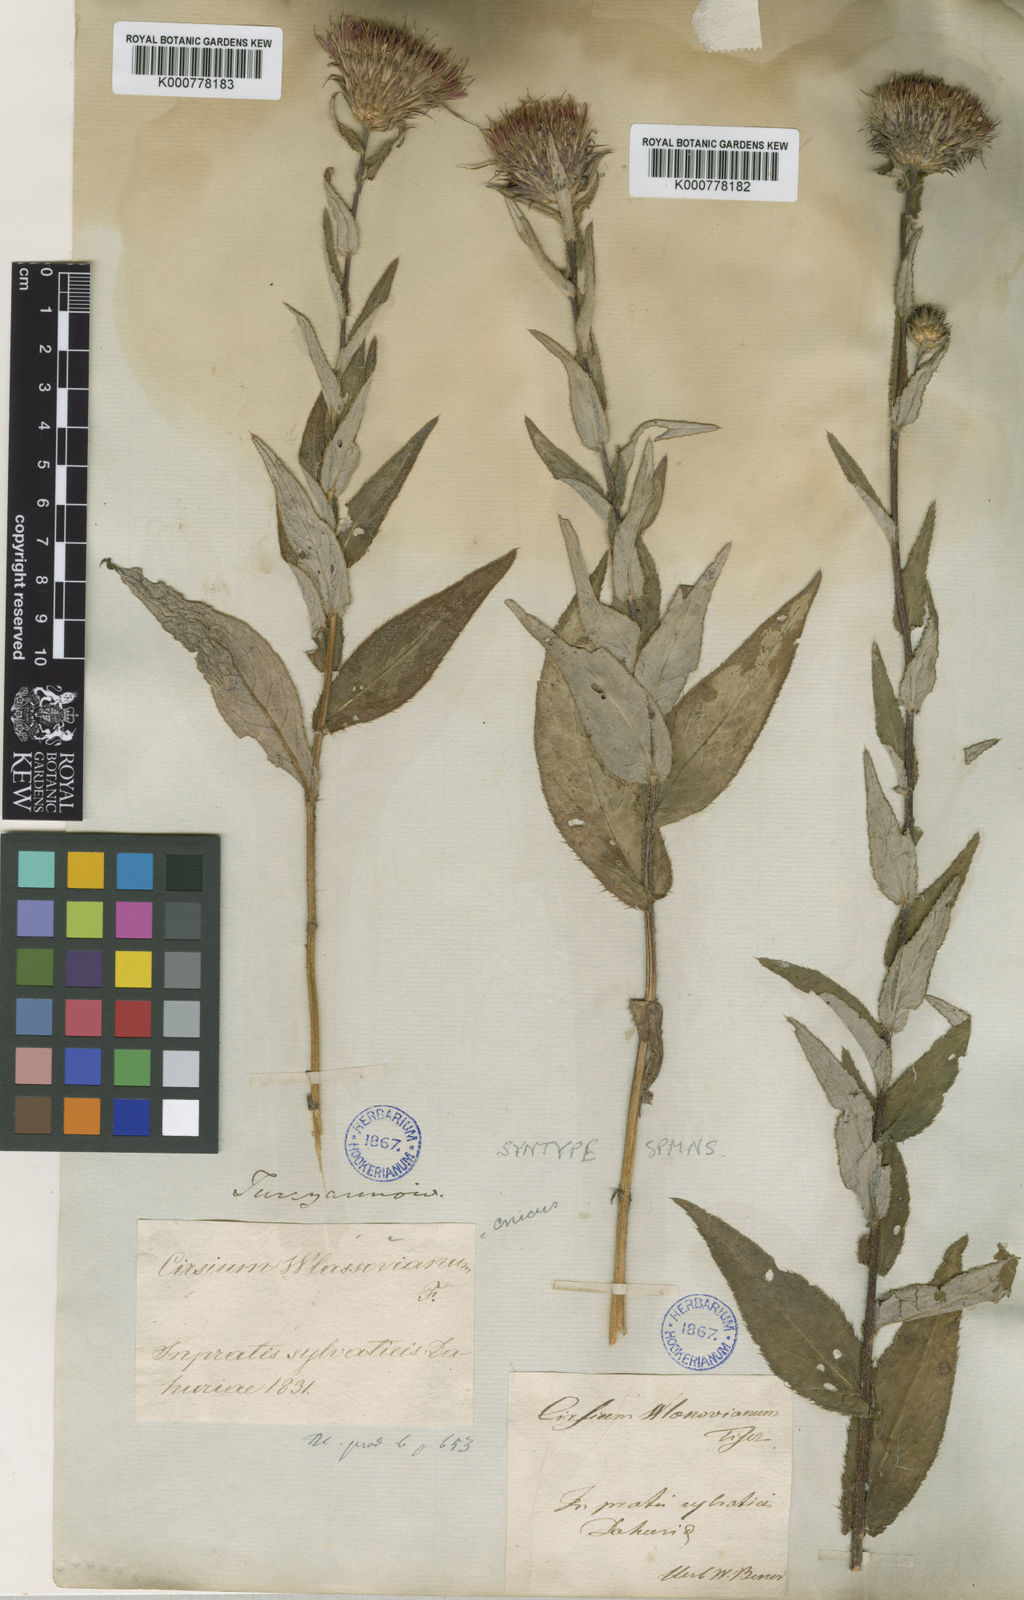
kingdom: Plantae
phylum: Tracheophyta
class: Magnoliopsida
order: Asterales
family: Asteraceae
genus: Cirsium
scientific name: Cirsium vlassovianum
